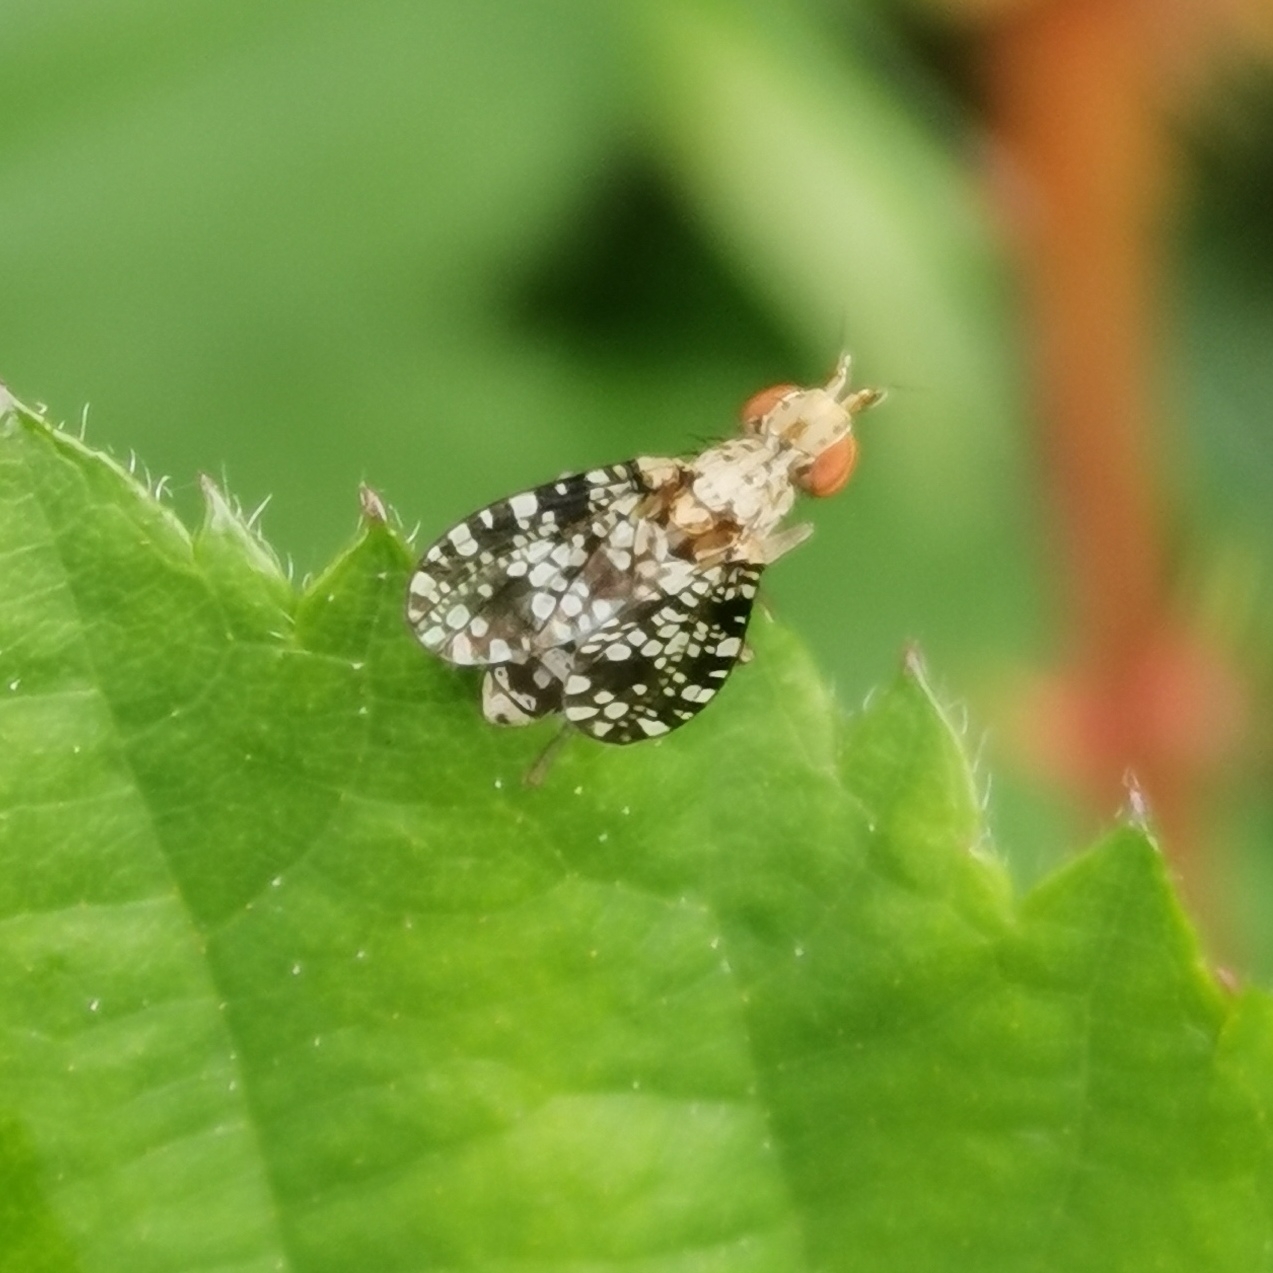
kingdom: Animalia
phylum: Arthropoda
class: Insecta
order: Diptera
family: Sciomyzidae
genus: Trypetoptera
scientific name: Trypetoptera punctulata
